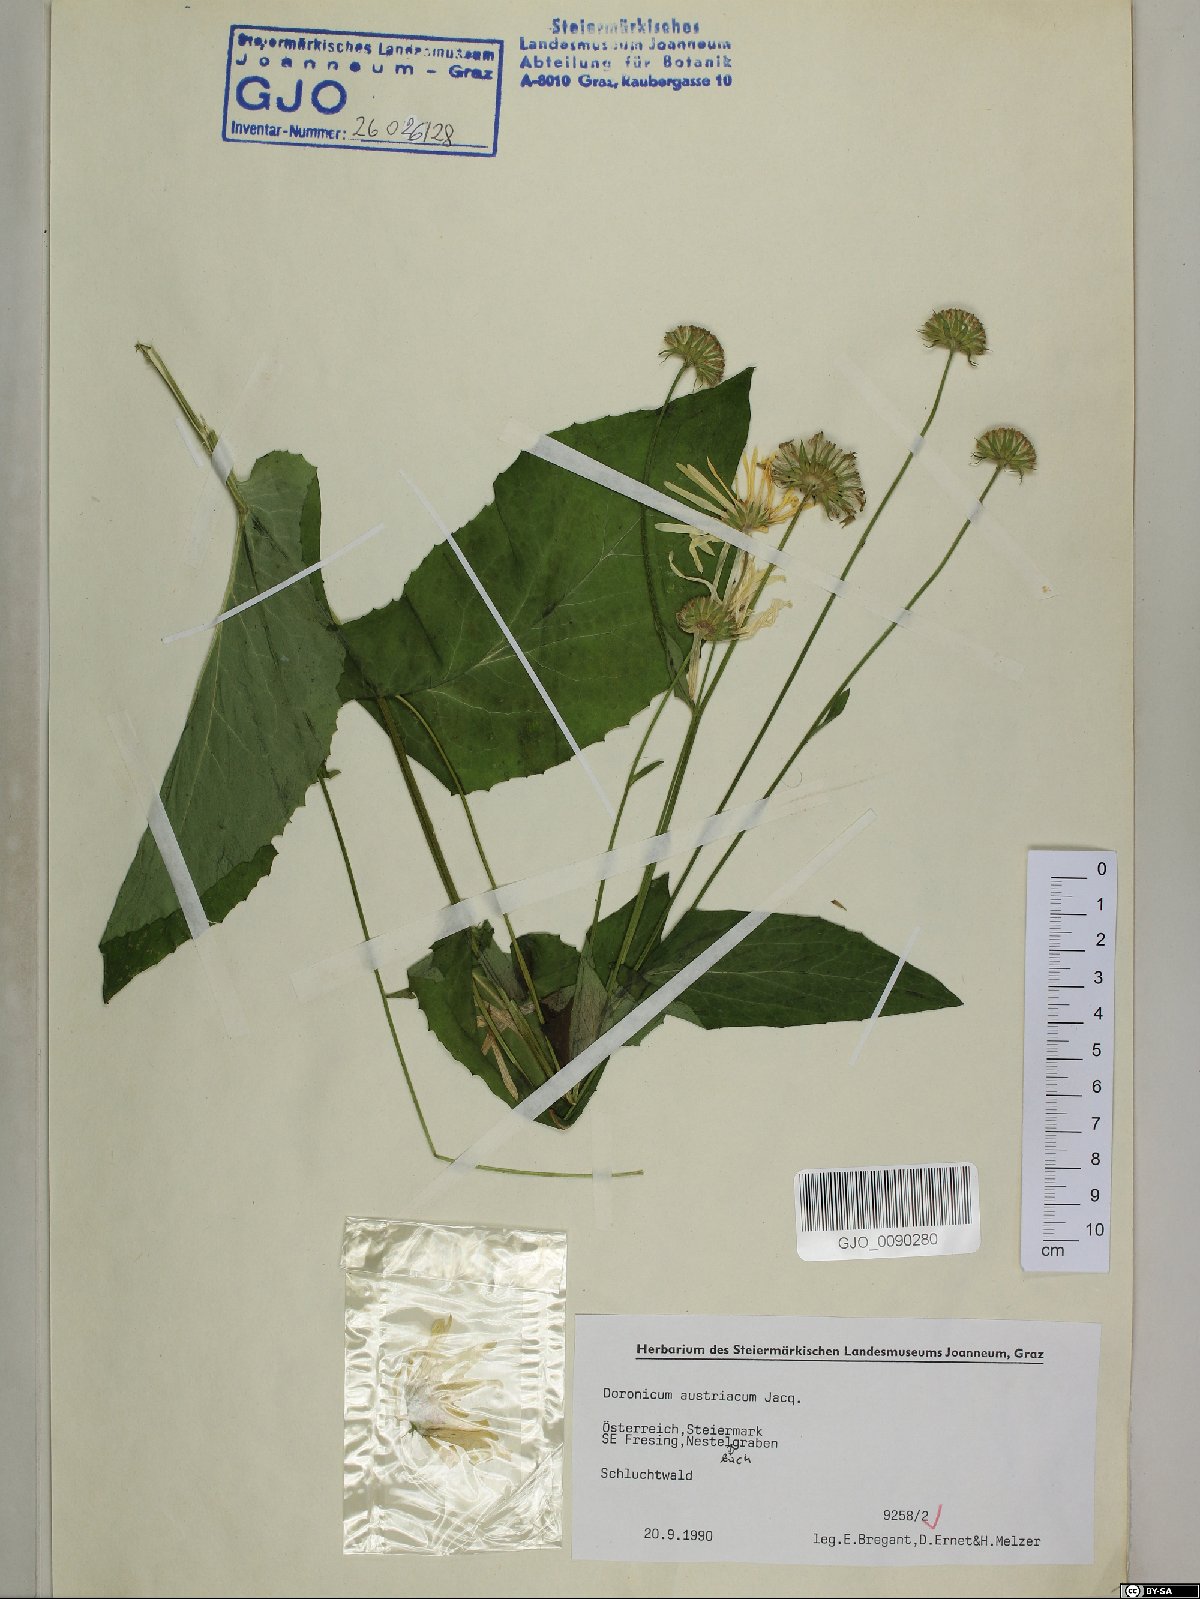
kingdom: Plantae
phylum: Tracheophyta
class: Magnoliopsida
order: Asterales
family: Asteraceae
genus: Doronicum
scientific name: Doronicum austriacum
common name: Austrian leopard's-bane
